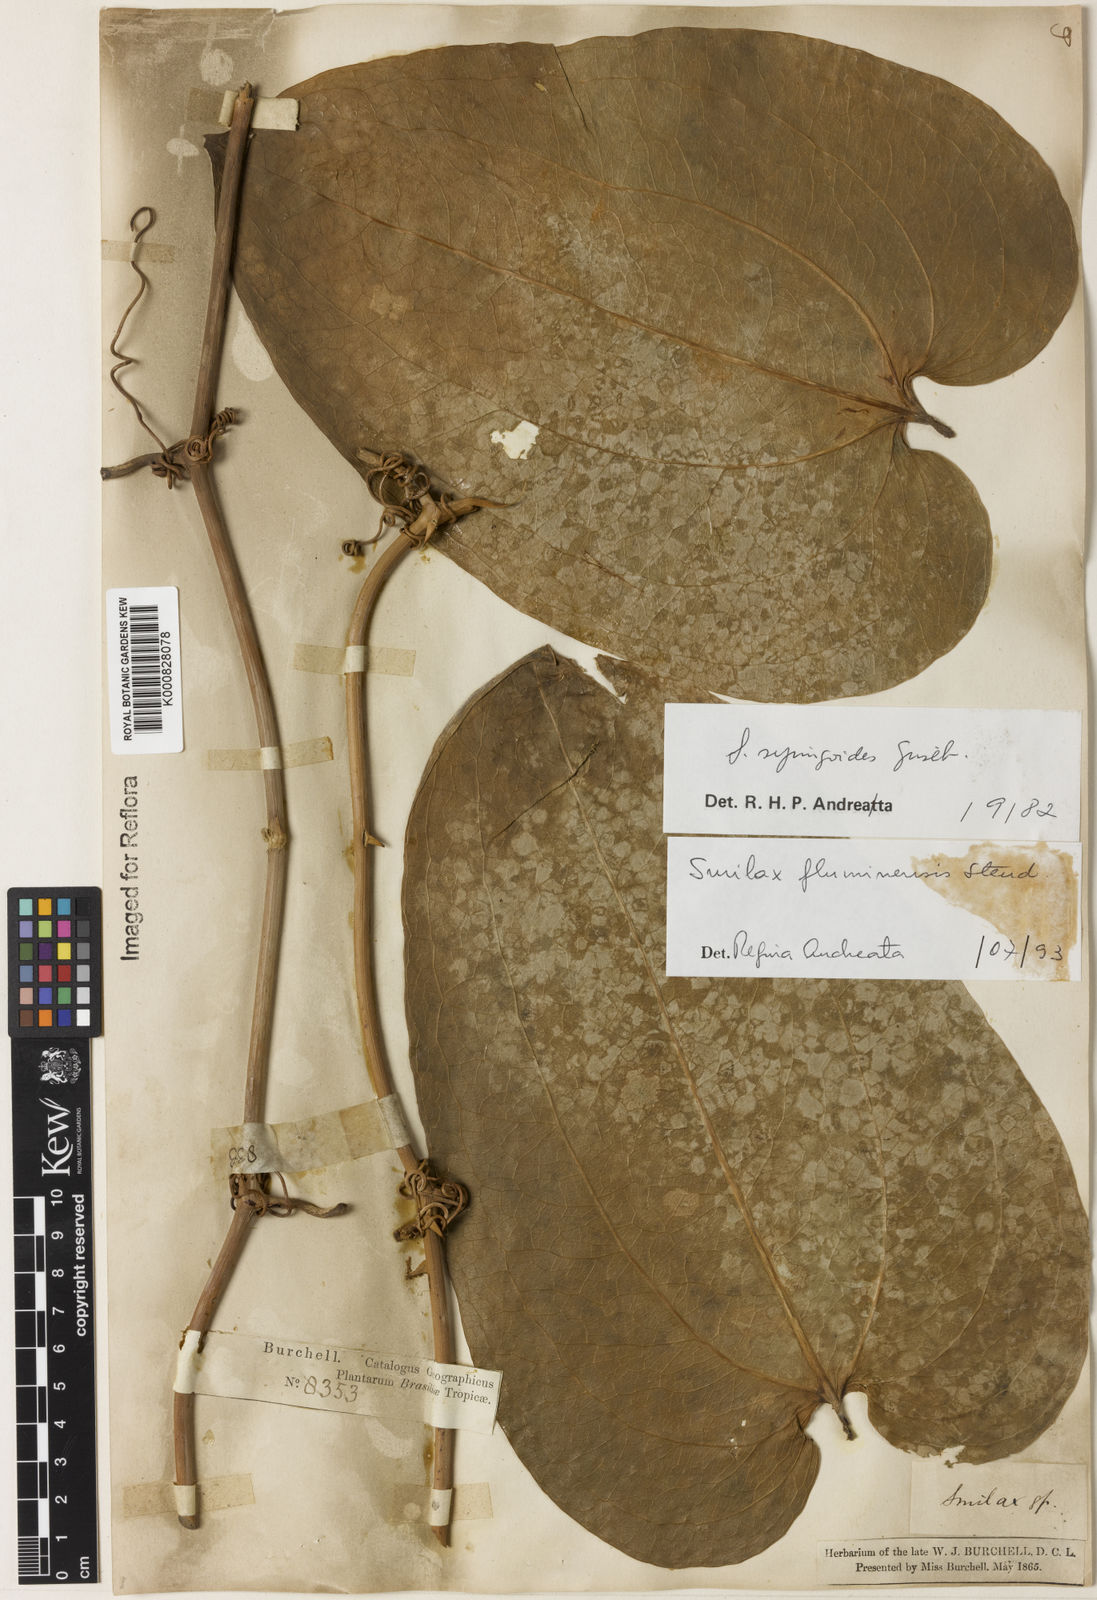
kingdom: Plantae
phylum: Tracheophyta
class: Liliopsida
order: Liliales
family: Smilacaceae
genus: Smilax
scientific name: Smilax fluminensis
